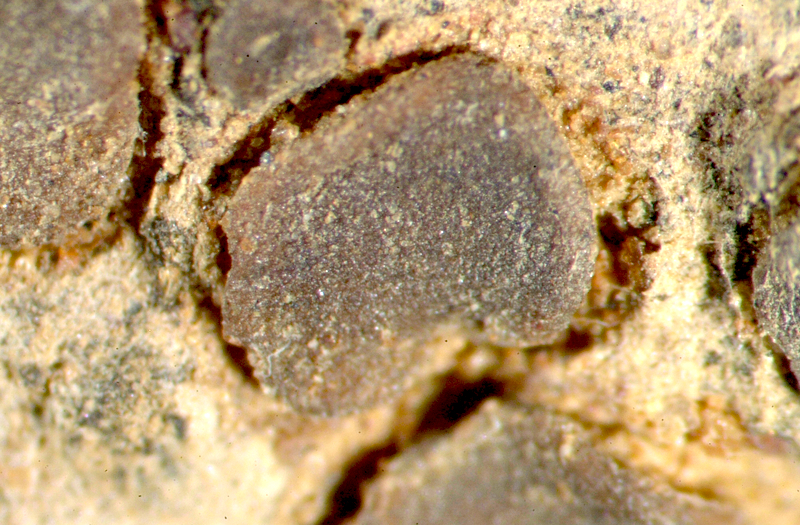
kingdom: Fungi
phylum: Ascomycota
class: Eurotiomycetes
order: Verrucariales
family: Verrucariaceae
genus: Catapyrenium
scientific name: Catapyrenium tenellum
